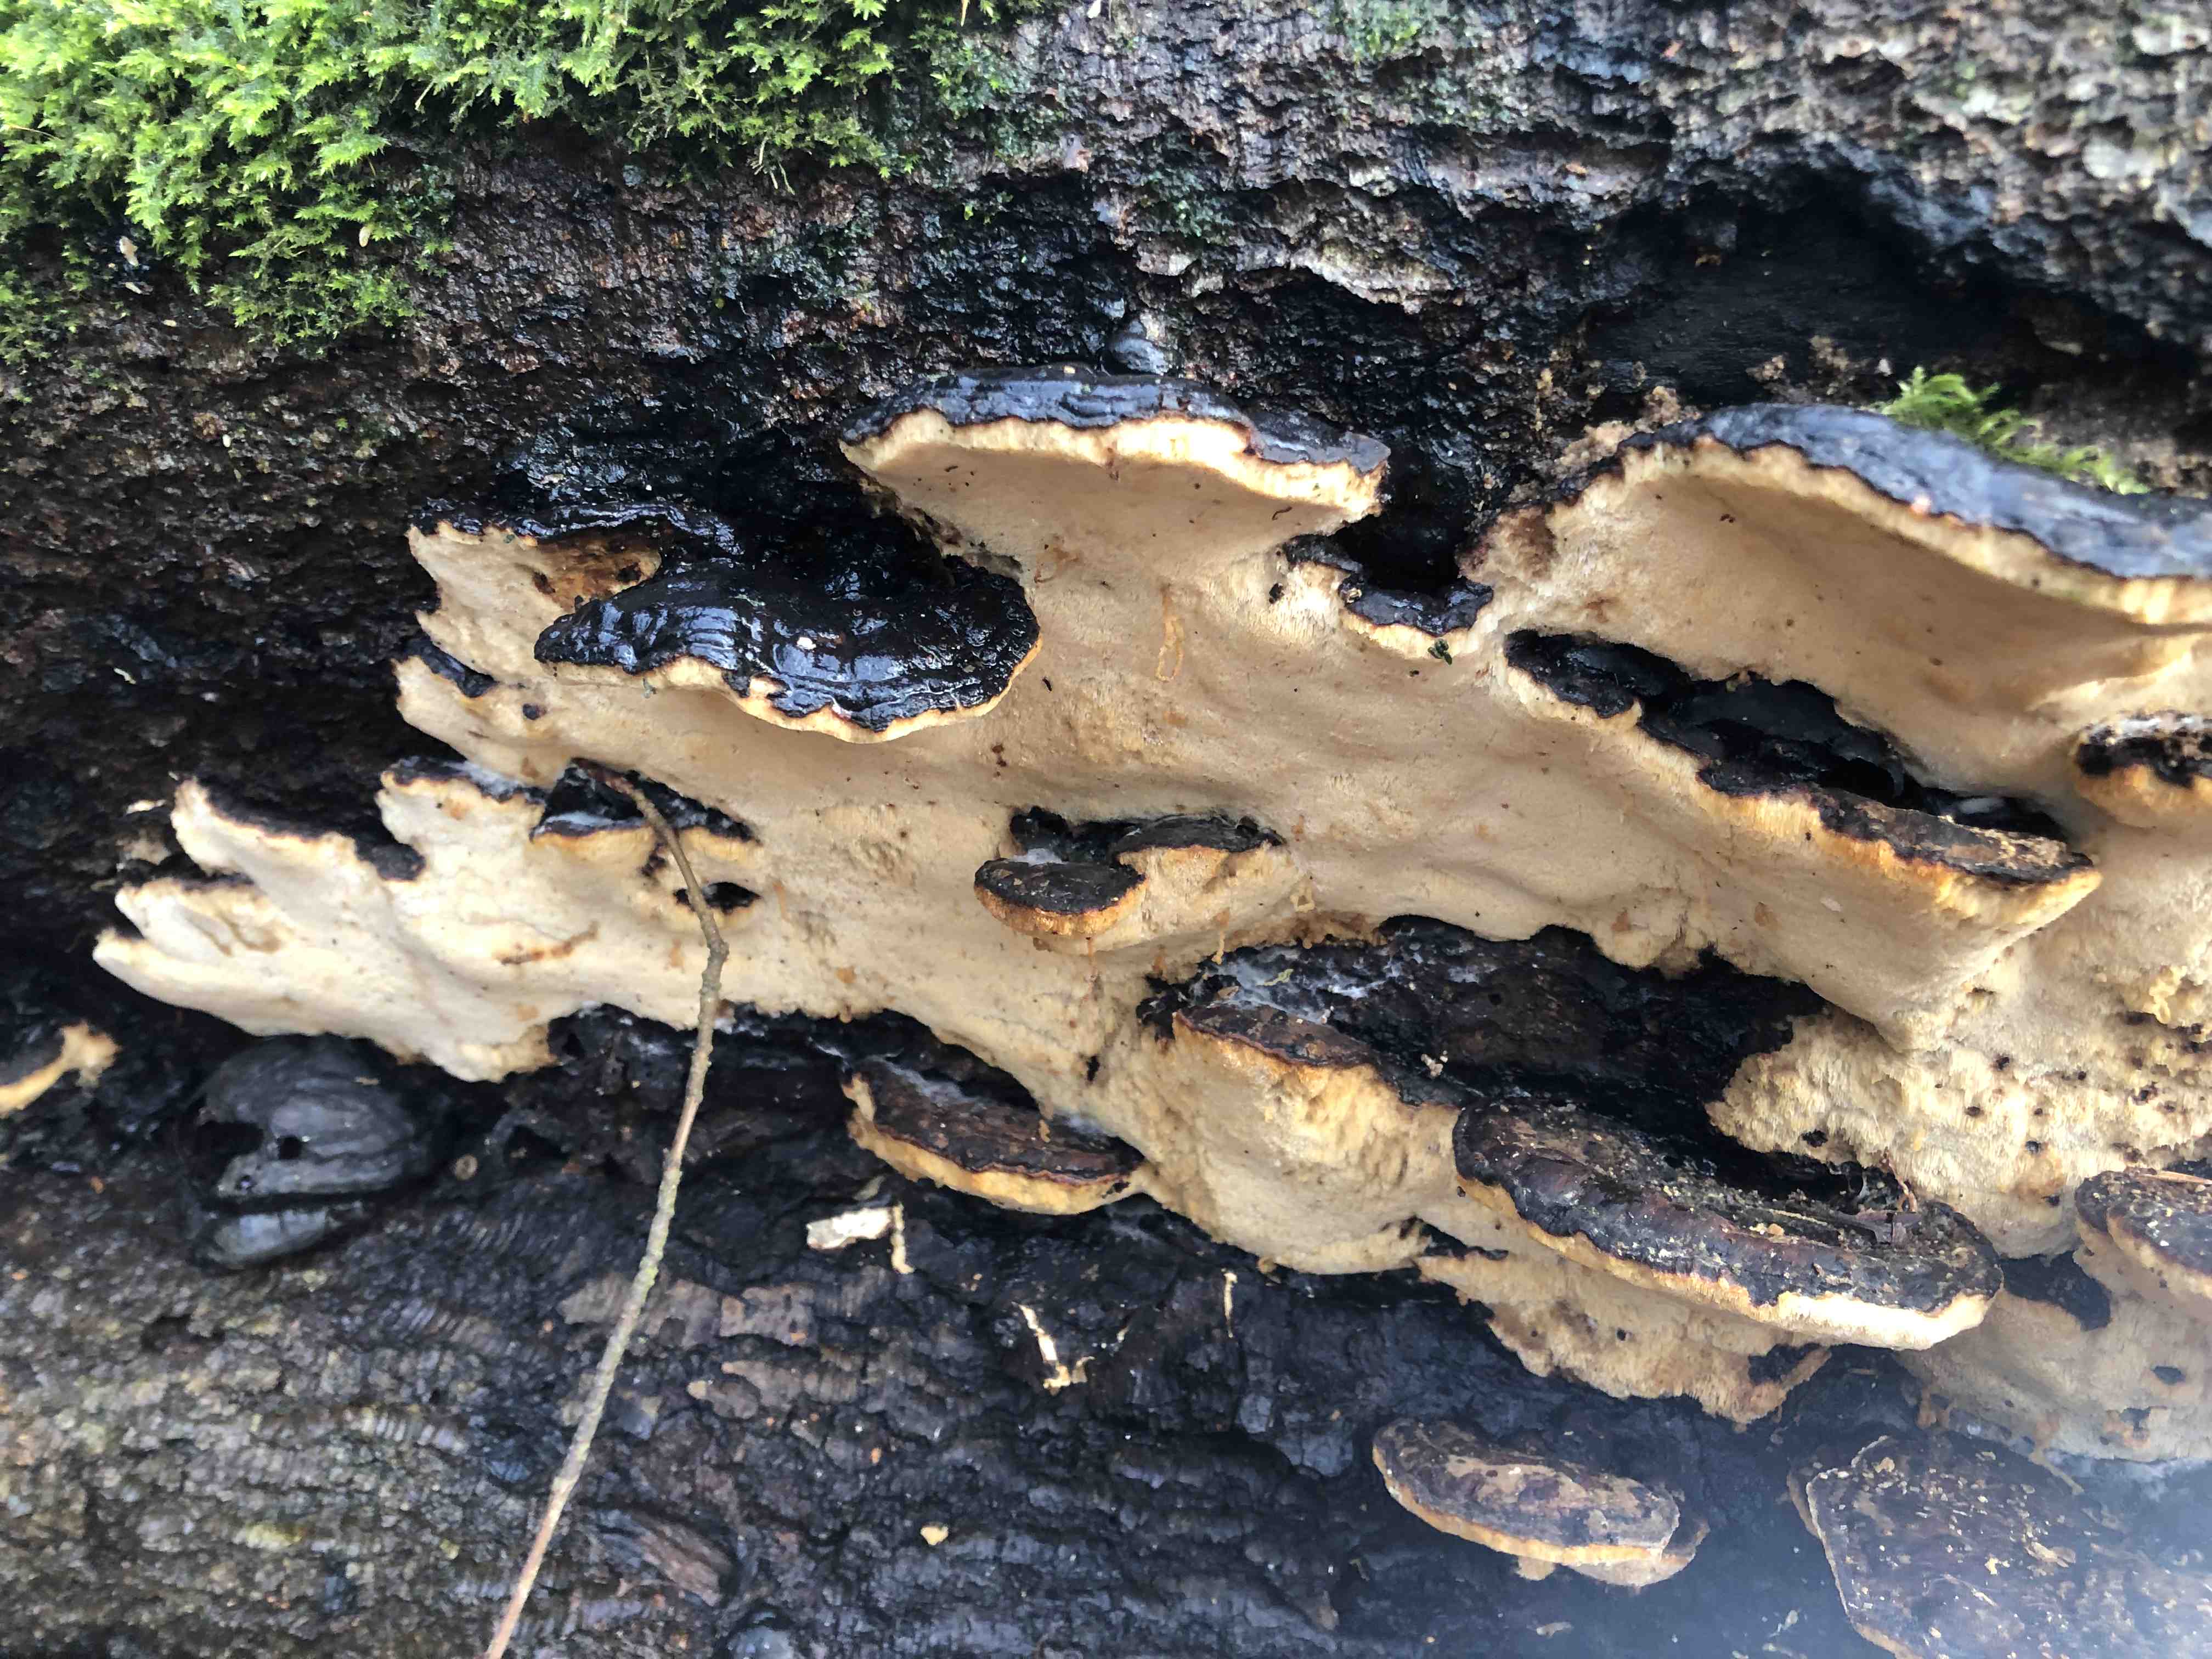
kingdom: Fungi
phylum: Basidiomycota
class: Agaricomycetes
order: Polyporales
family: Ischnodermataceae
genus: Ischnoderma
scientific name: Ischnoderma resinosum
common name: løv-tjæreporesvamp
